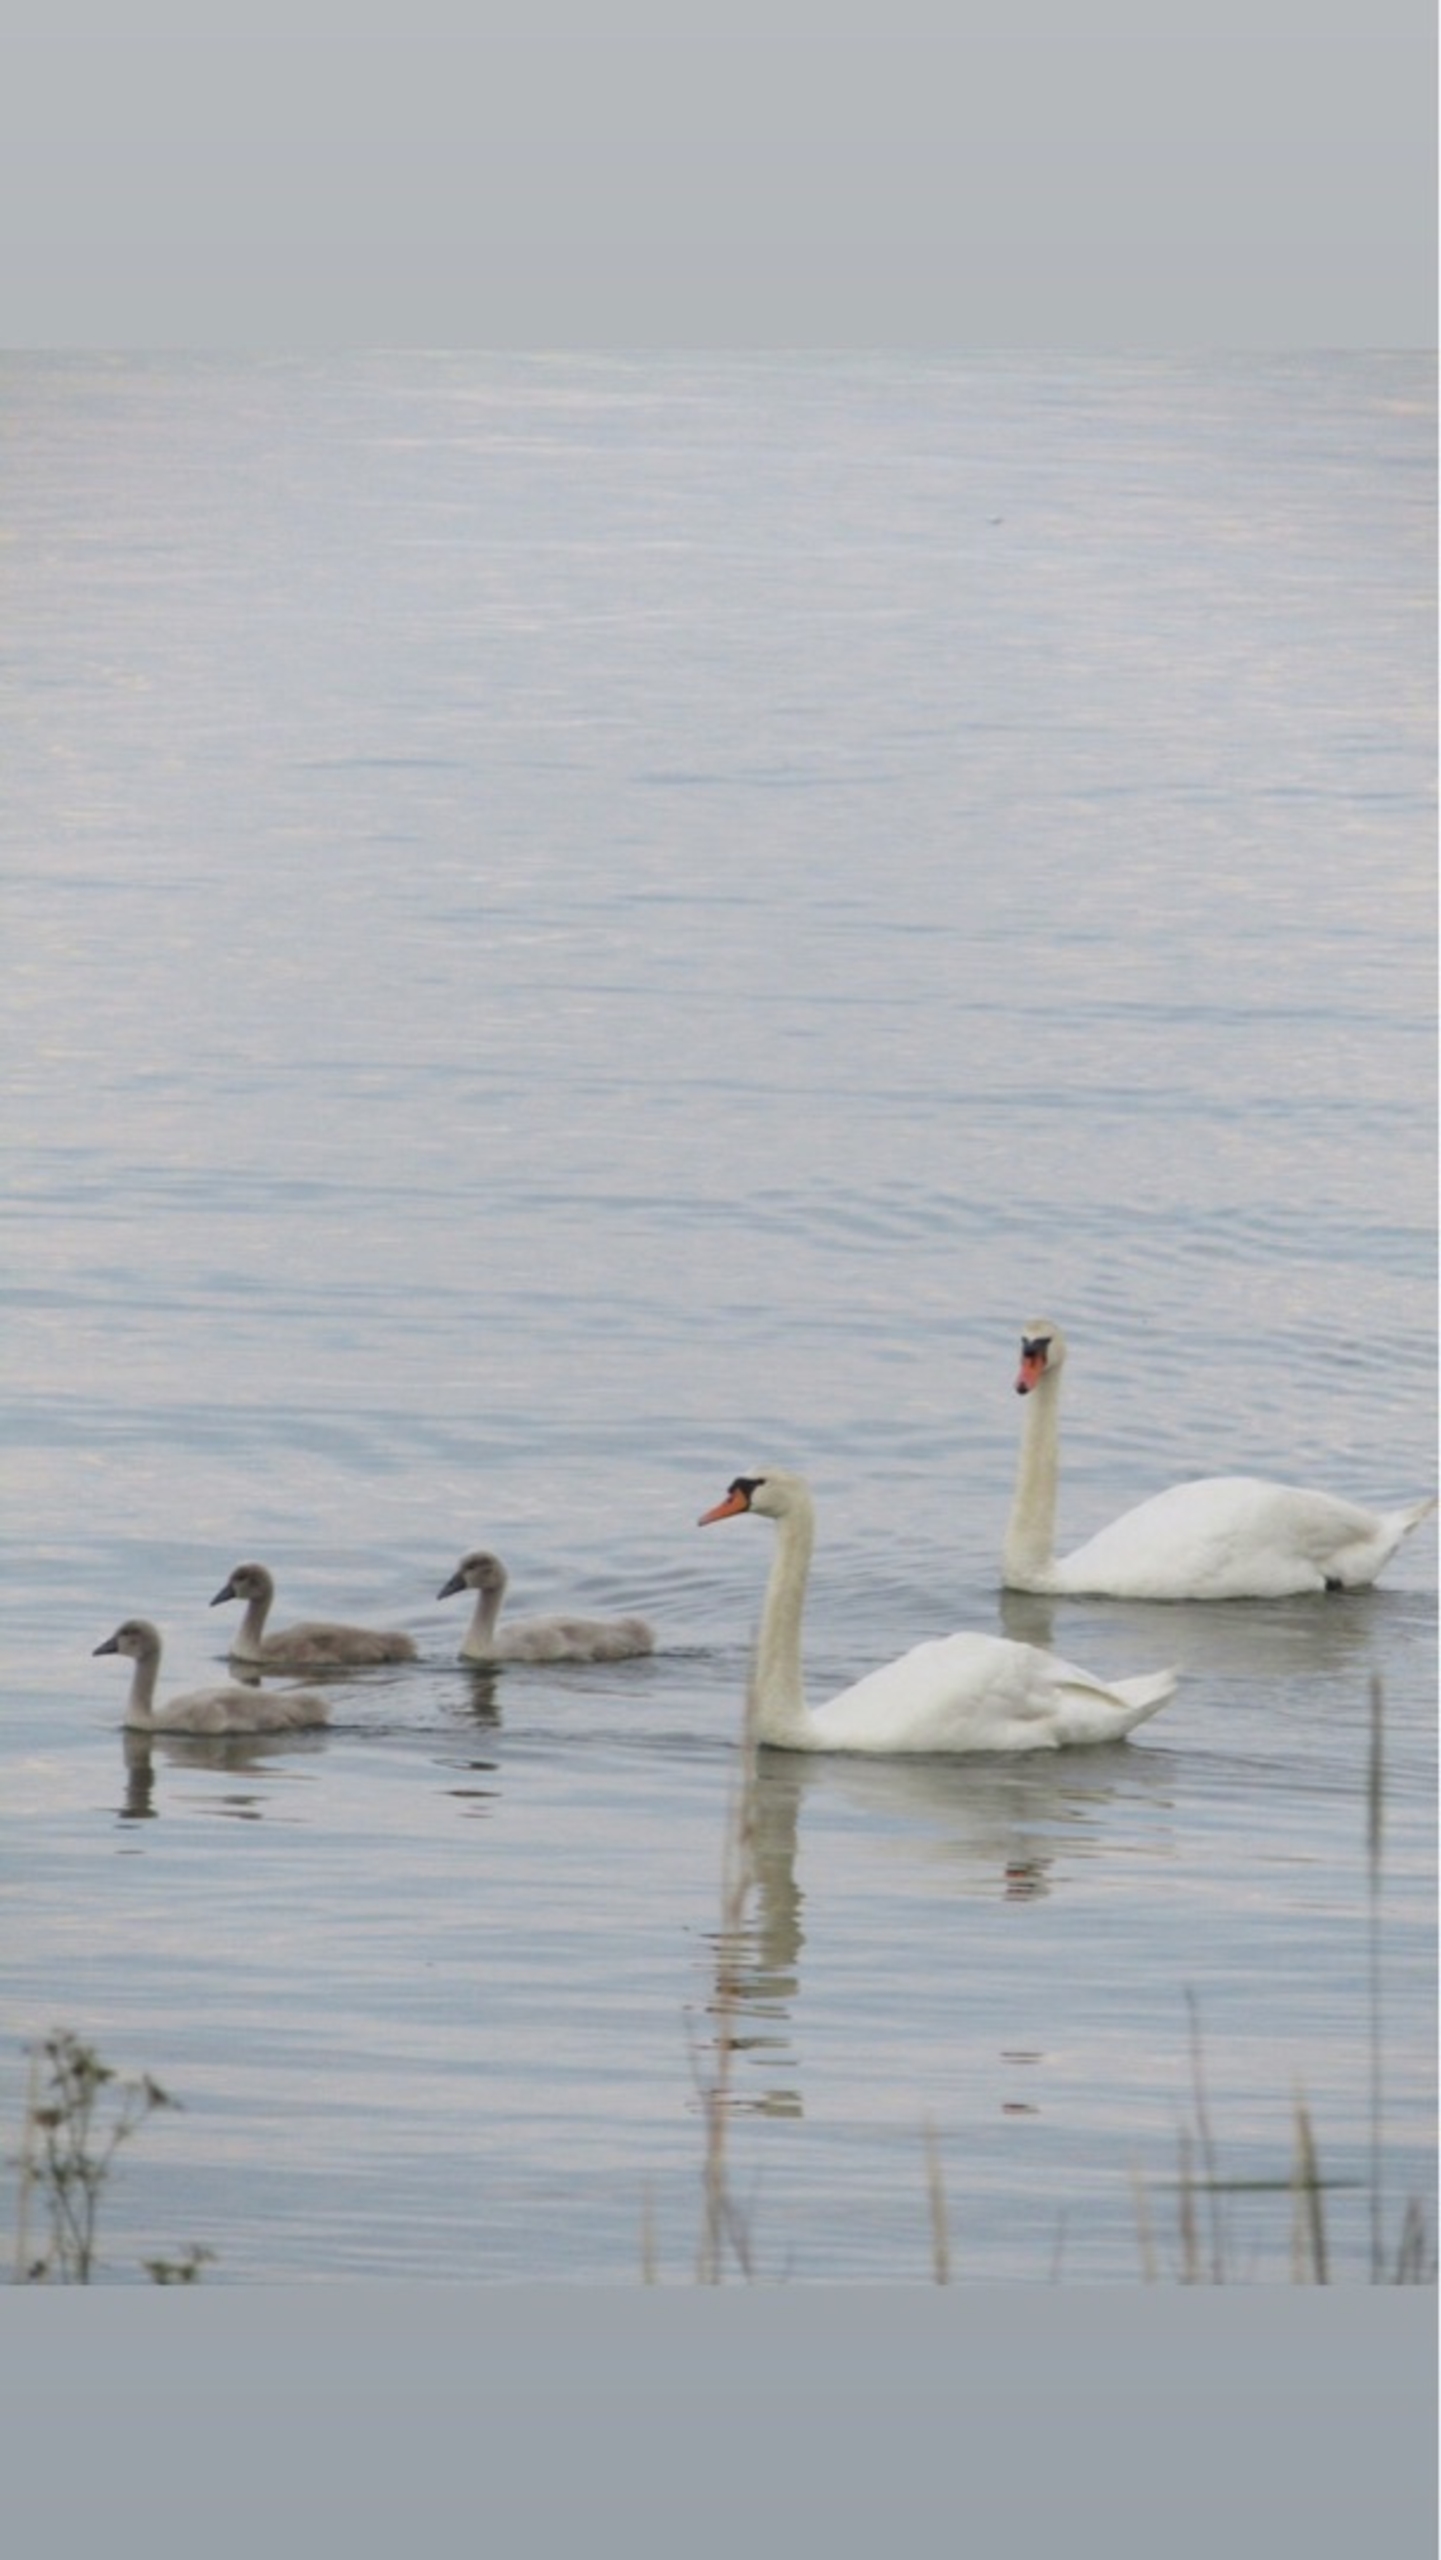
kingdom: Animalia
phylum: Chordata
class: Aves
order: Anseriformes
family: Anatidae
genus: Cygnus
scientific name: Cygnus olor
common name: Knopsvane
